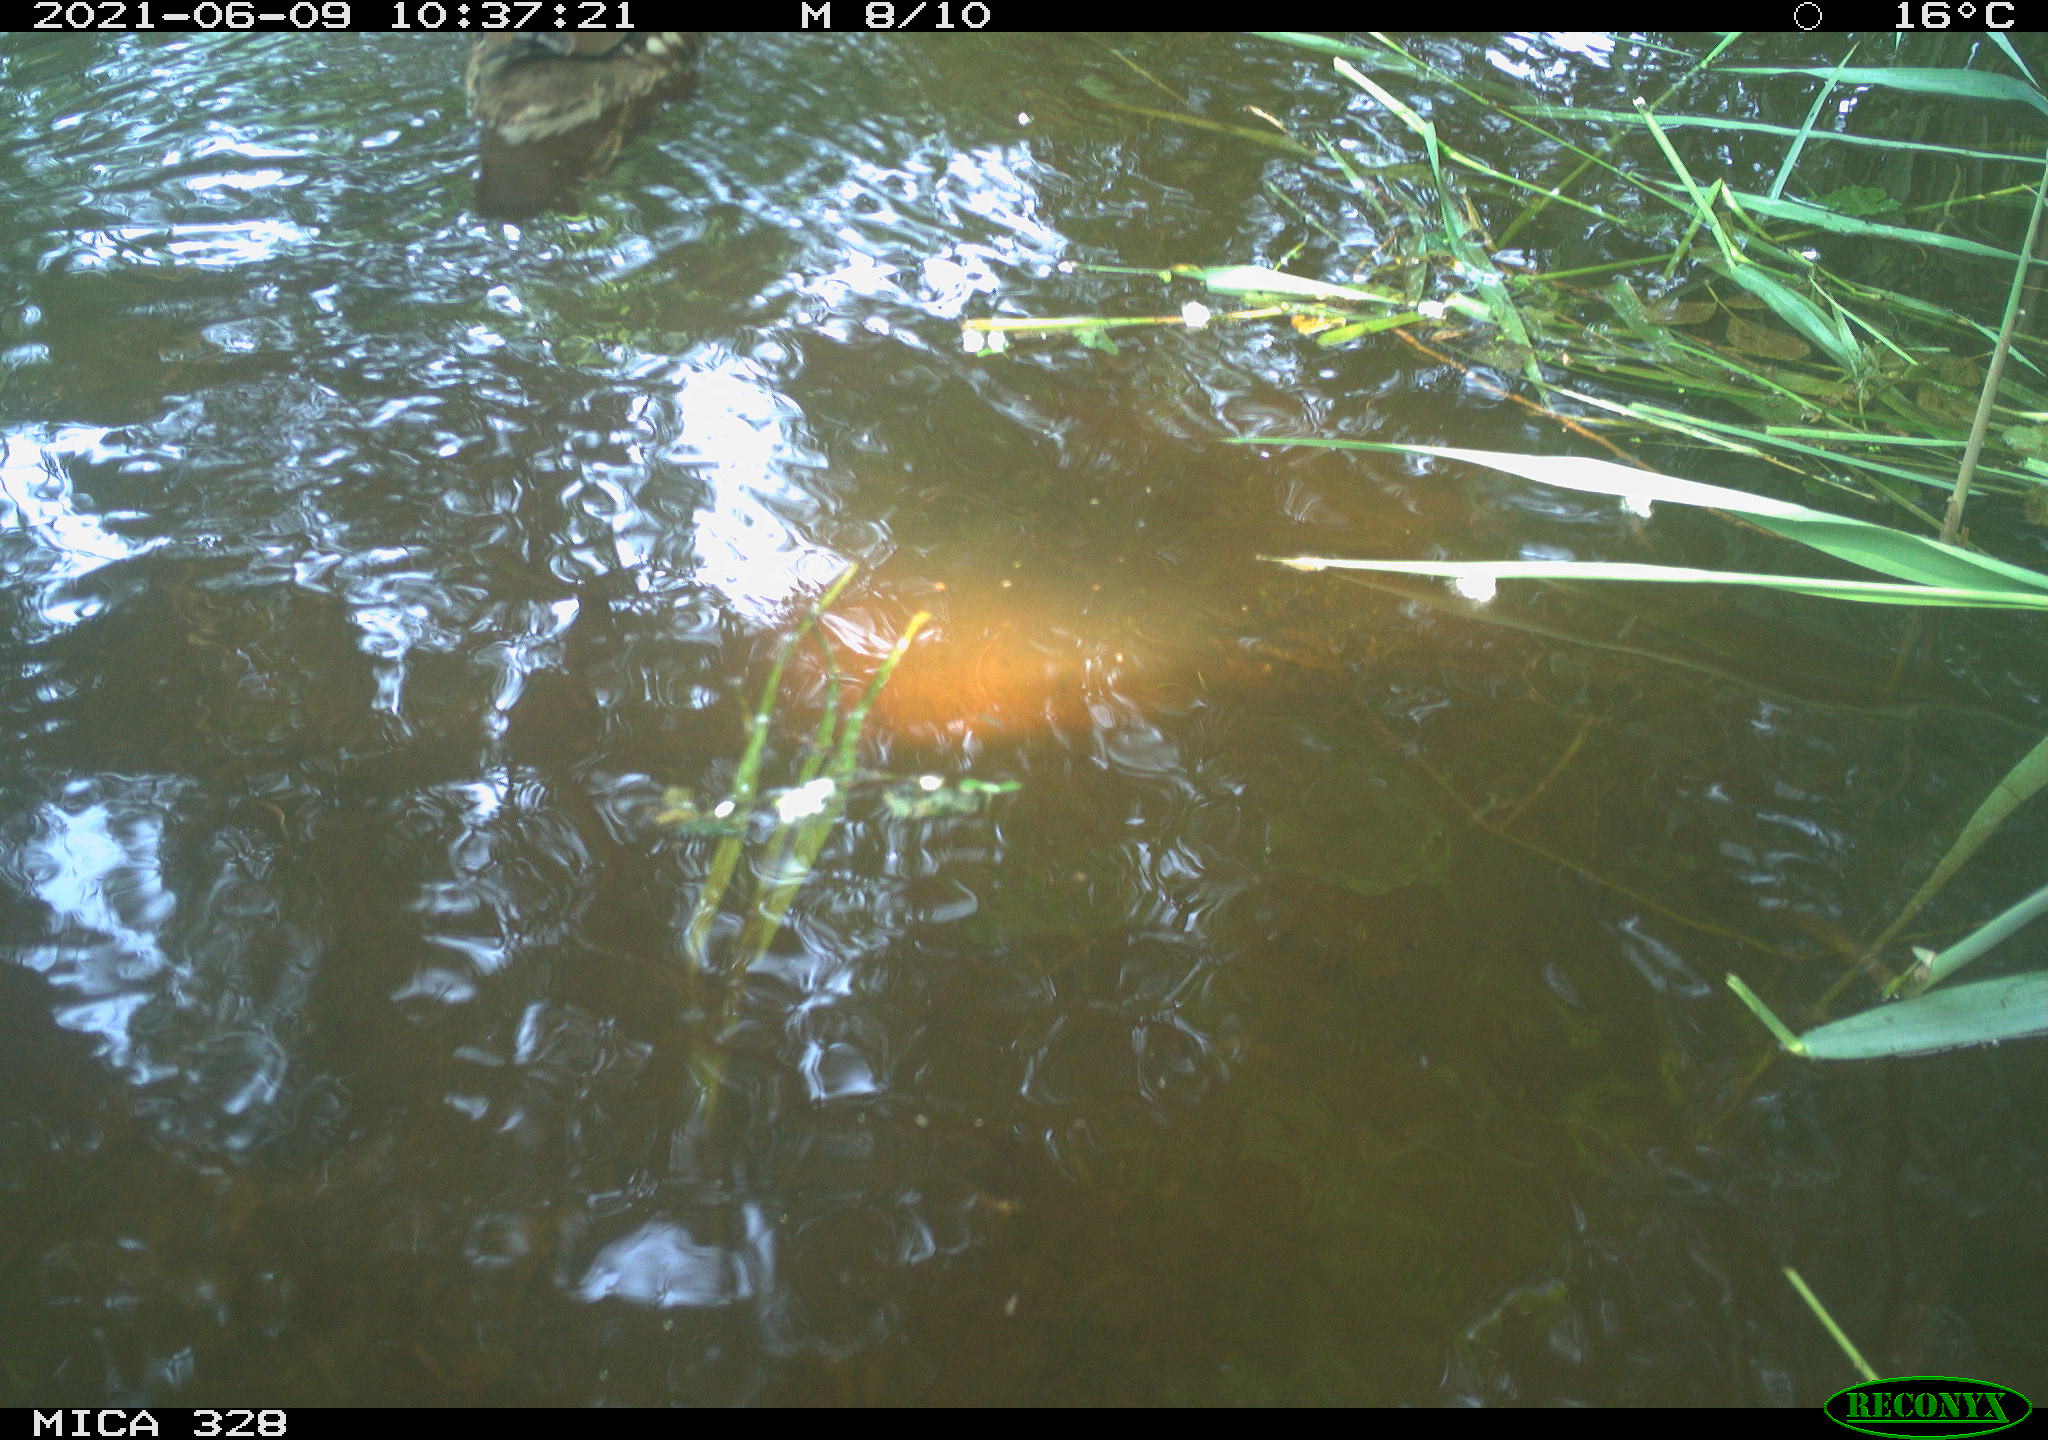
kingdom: Animalia
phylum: Chordata
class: Aves
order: Anseriformes
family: Anatidae
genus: Aix
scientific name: Aix galericulata
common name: Mandarin duck
